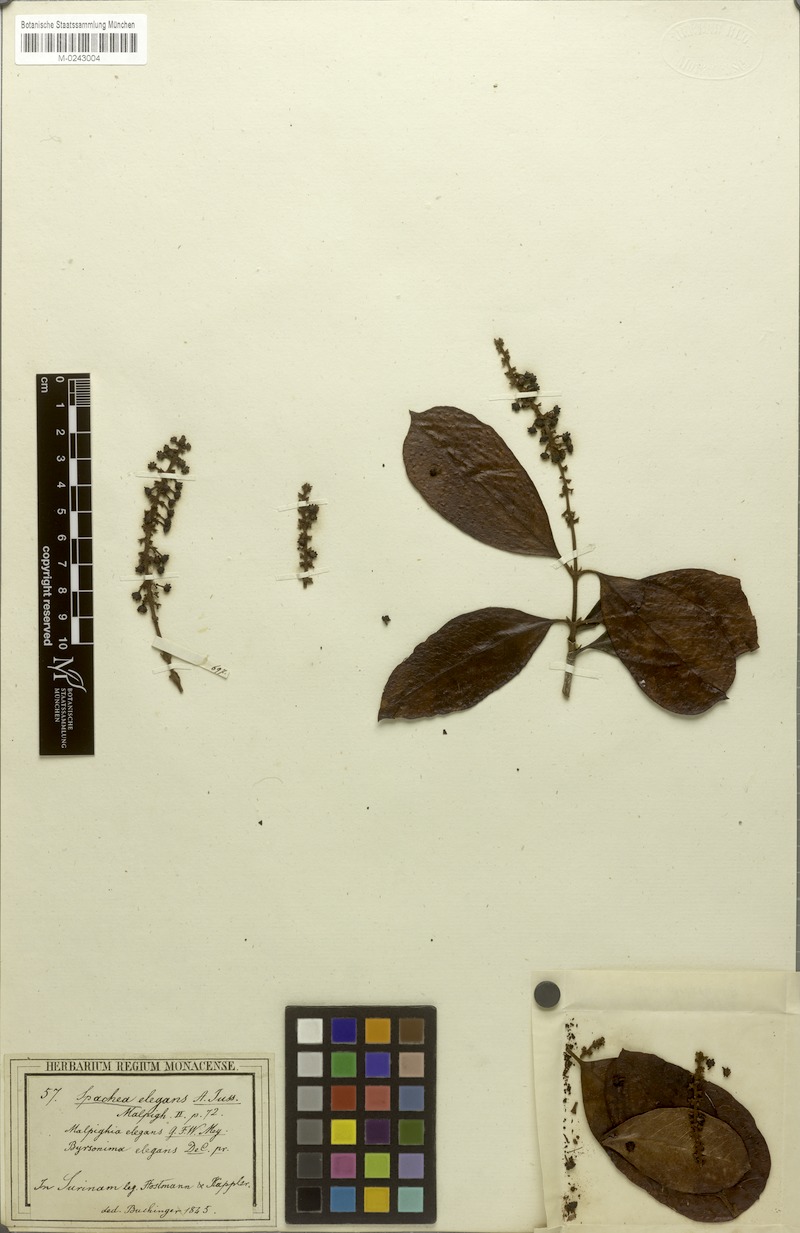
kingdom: Plantae
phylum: Tracheophyta
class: Magnoliopsida
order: Malpighiales
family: Malpighiaceae
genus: Spachea
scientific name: Spachea elegans
